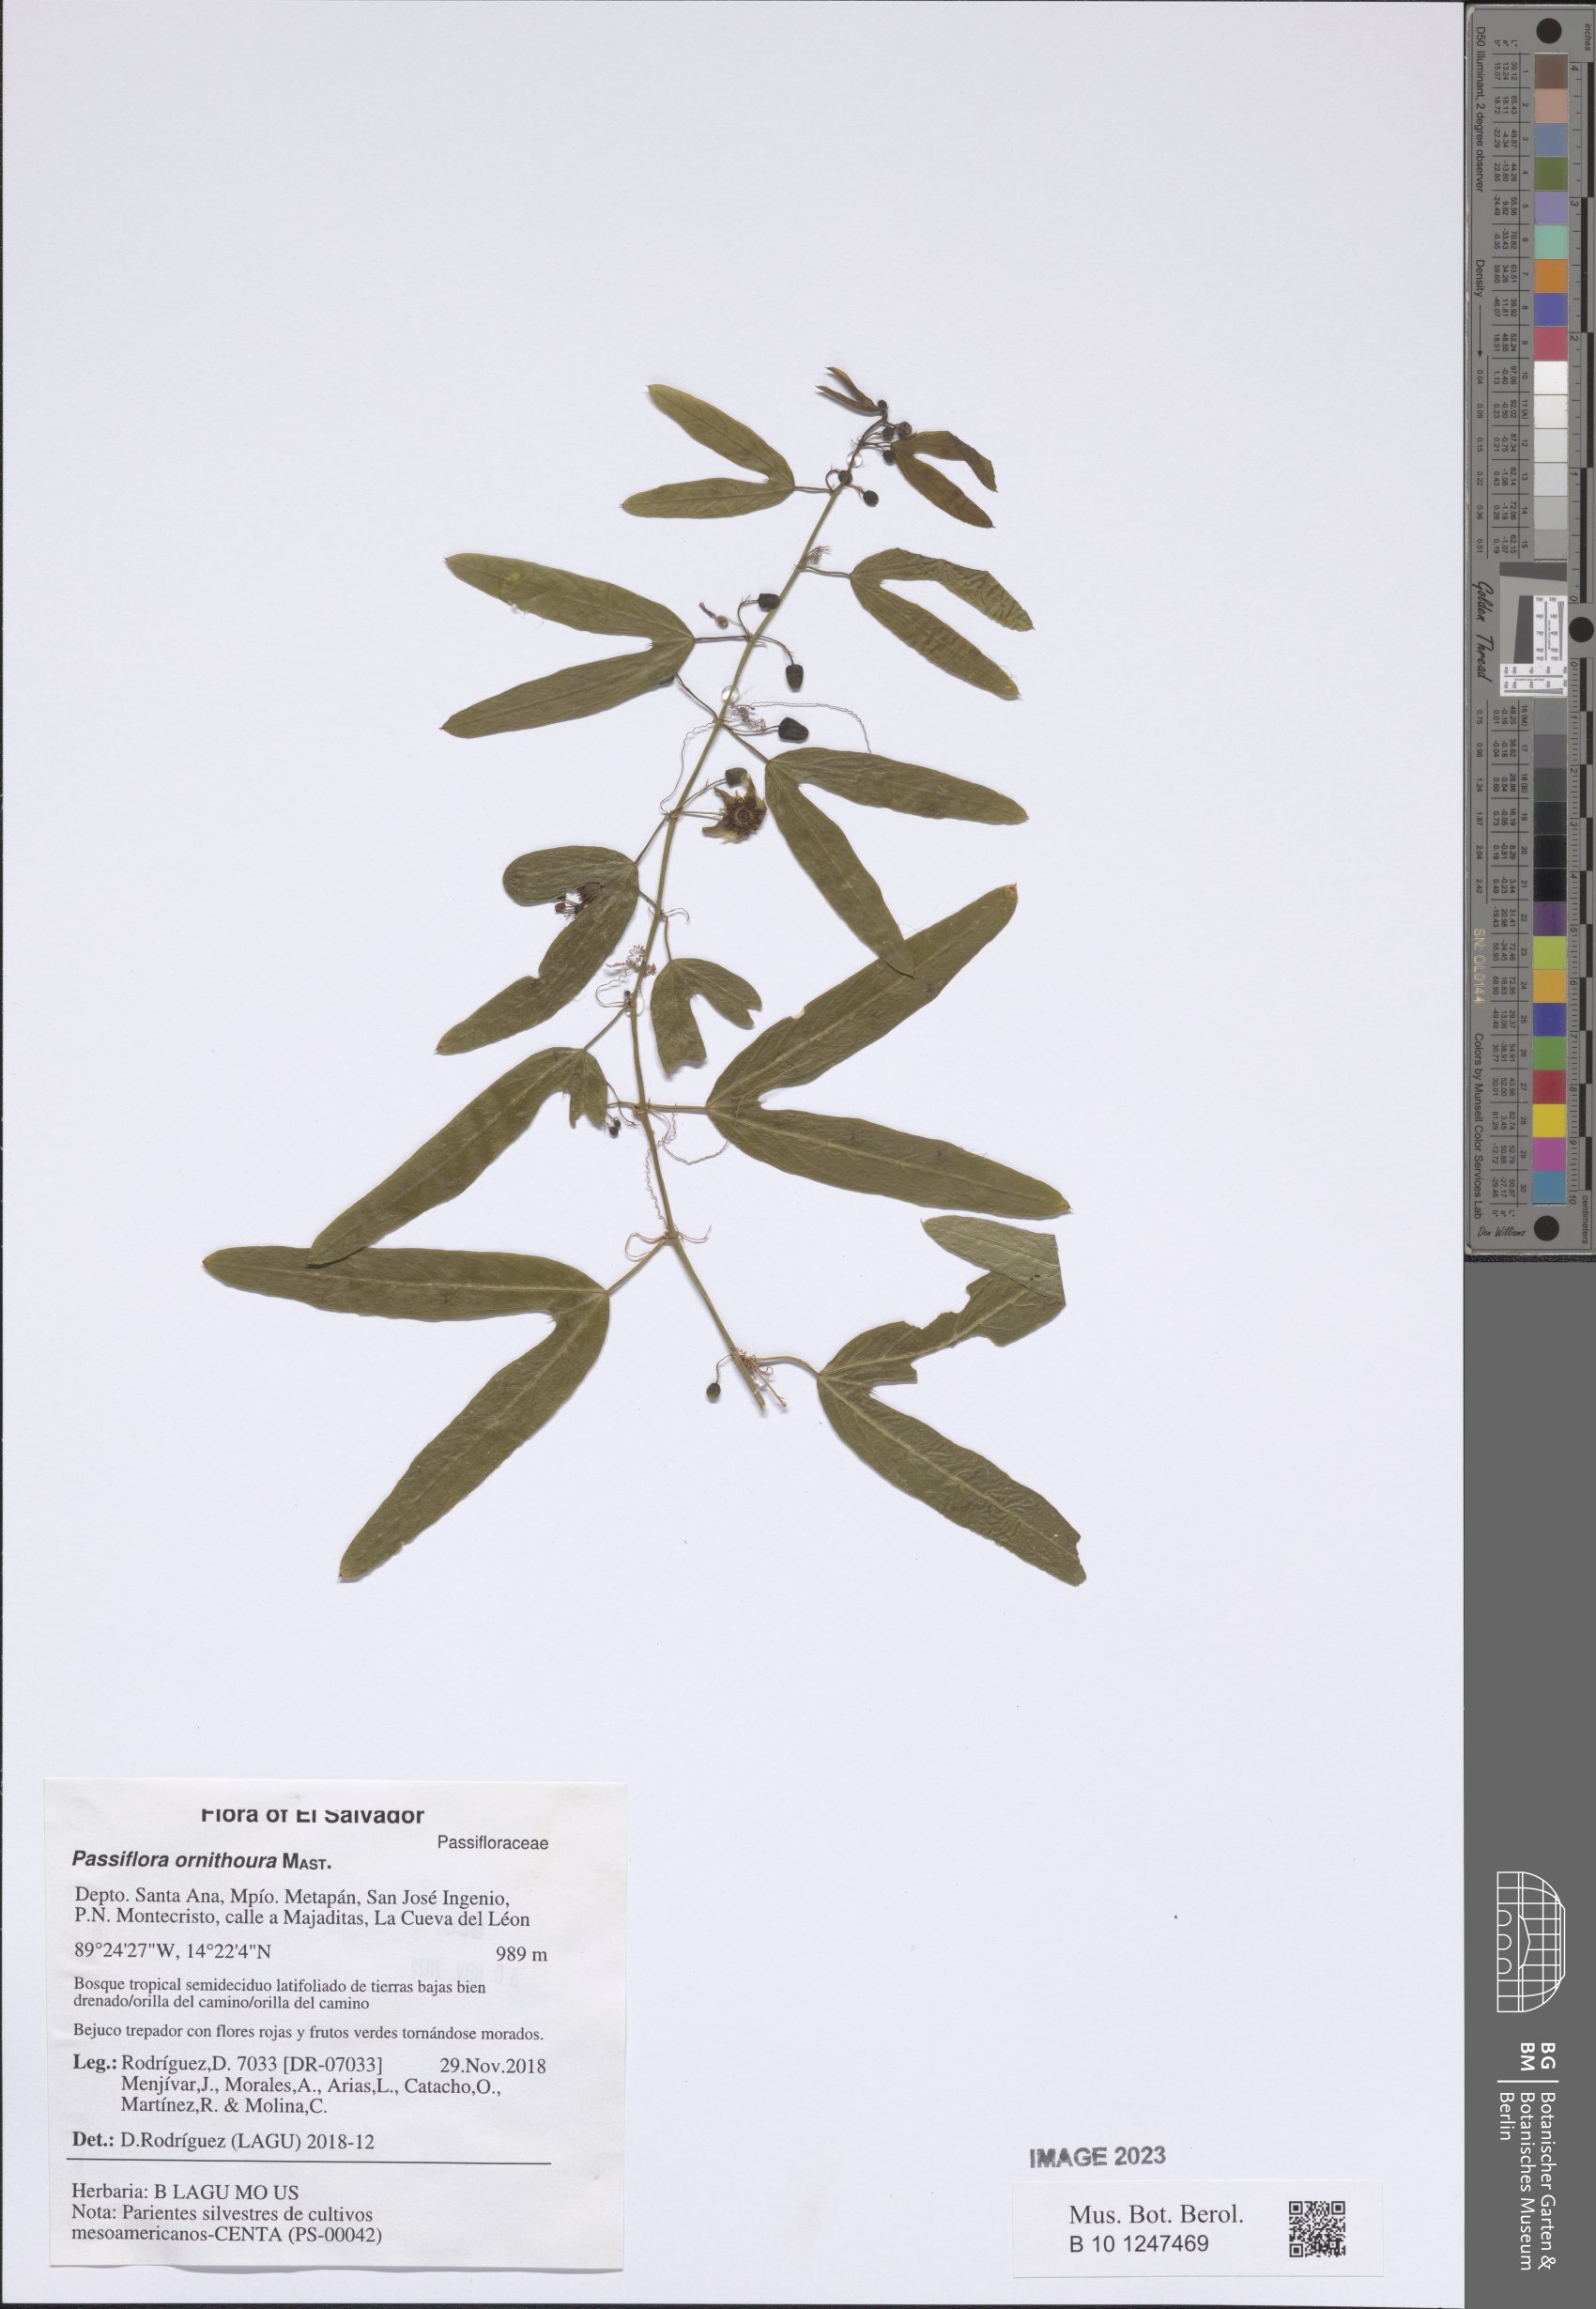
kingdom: Plantae
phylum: Tracheophyta
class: Magnoliopsida
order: Malpighiales
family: Passifloraceae
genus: Passiflora
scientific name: Passiflora ornithoura
